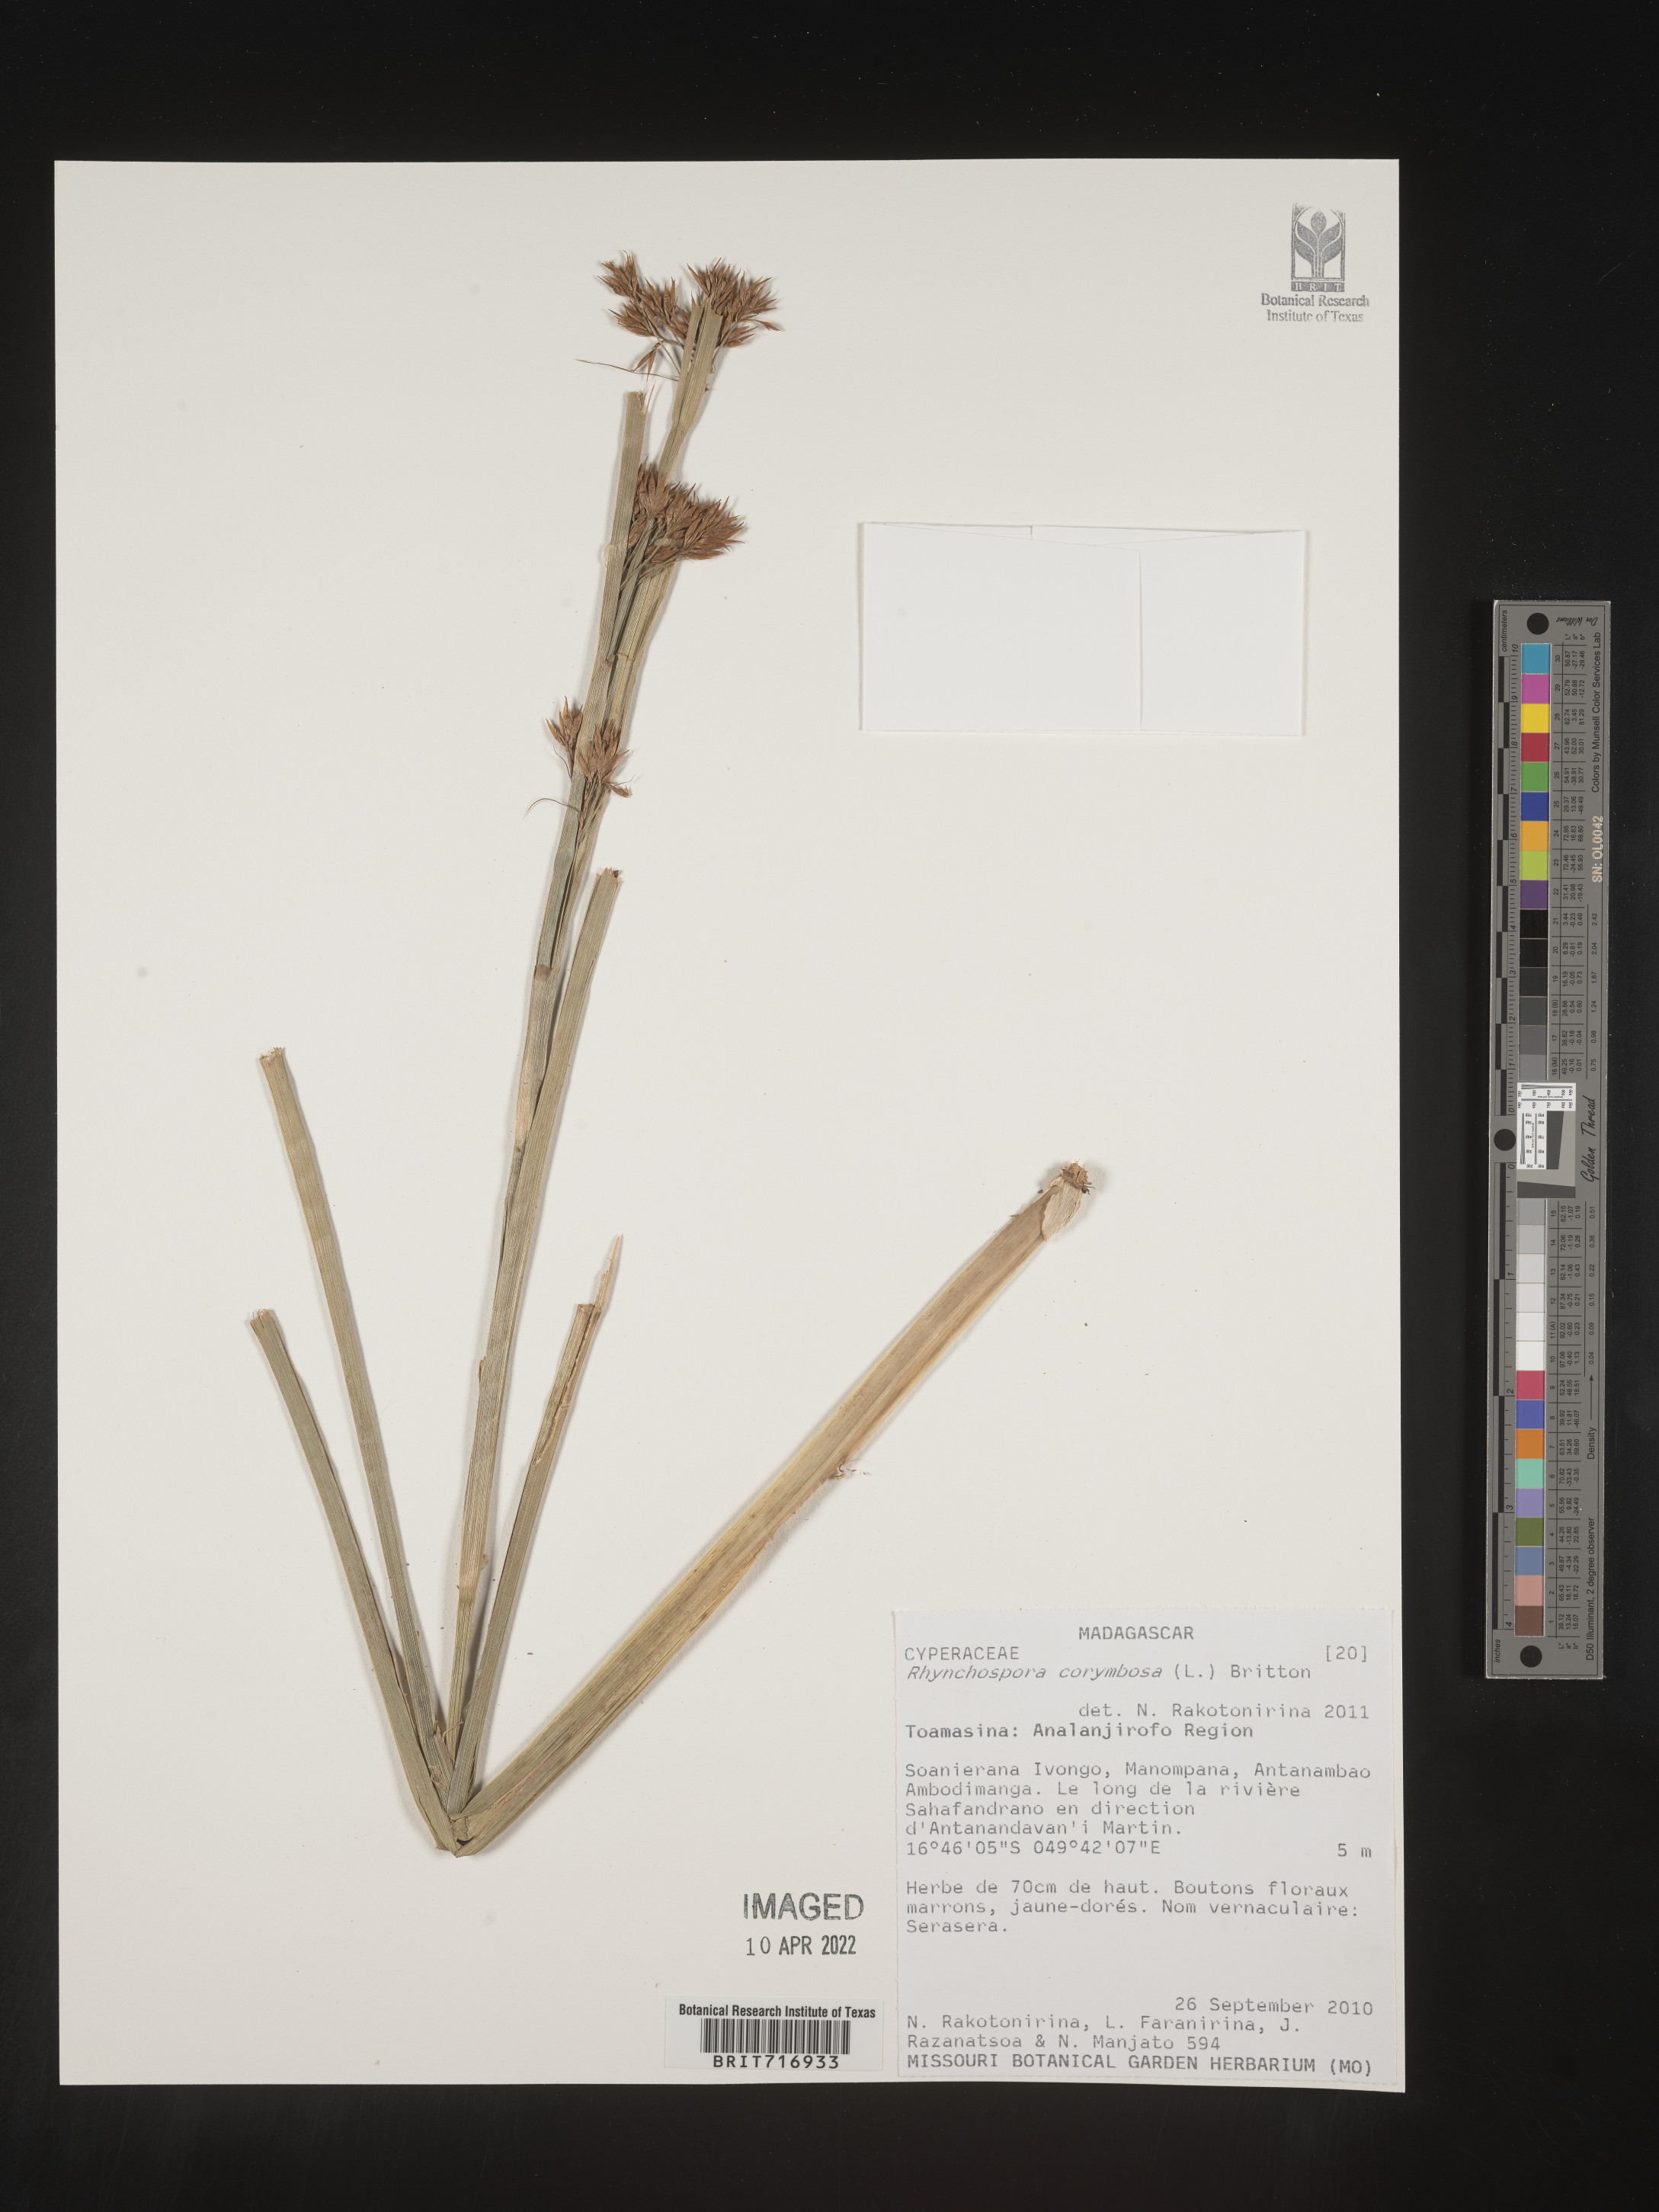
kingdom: Plantae
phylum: Tracheophyta
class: Liliopsida
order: Poales
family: Cyperaceae
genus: Rhynchospora
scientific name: Rhynchospora
